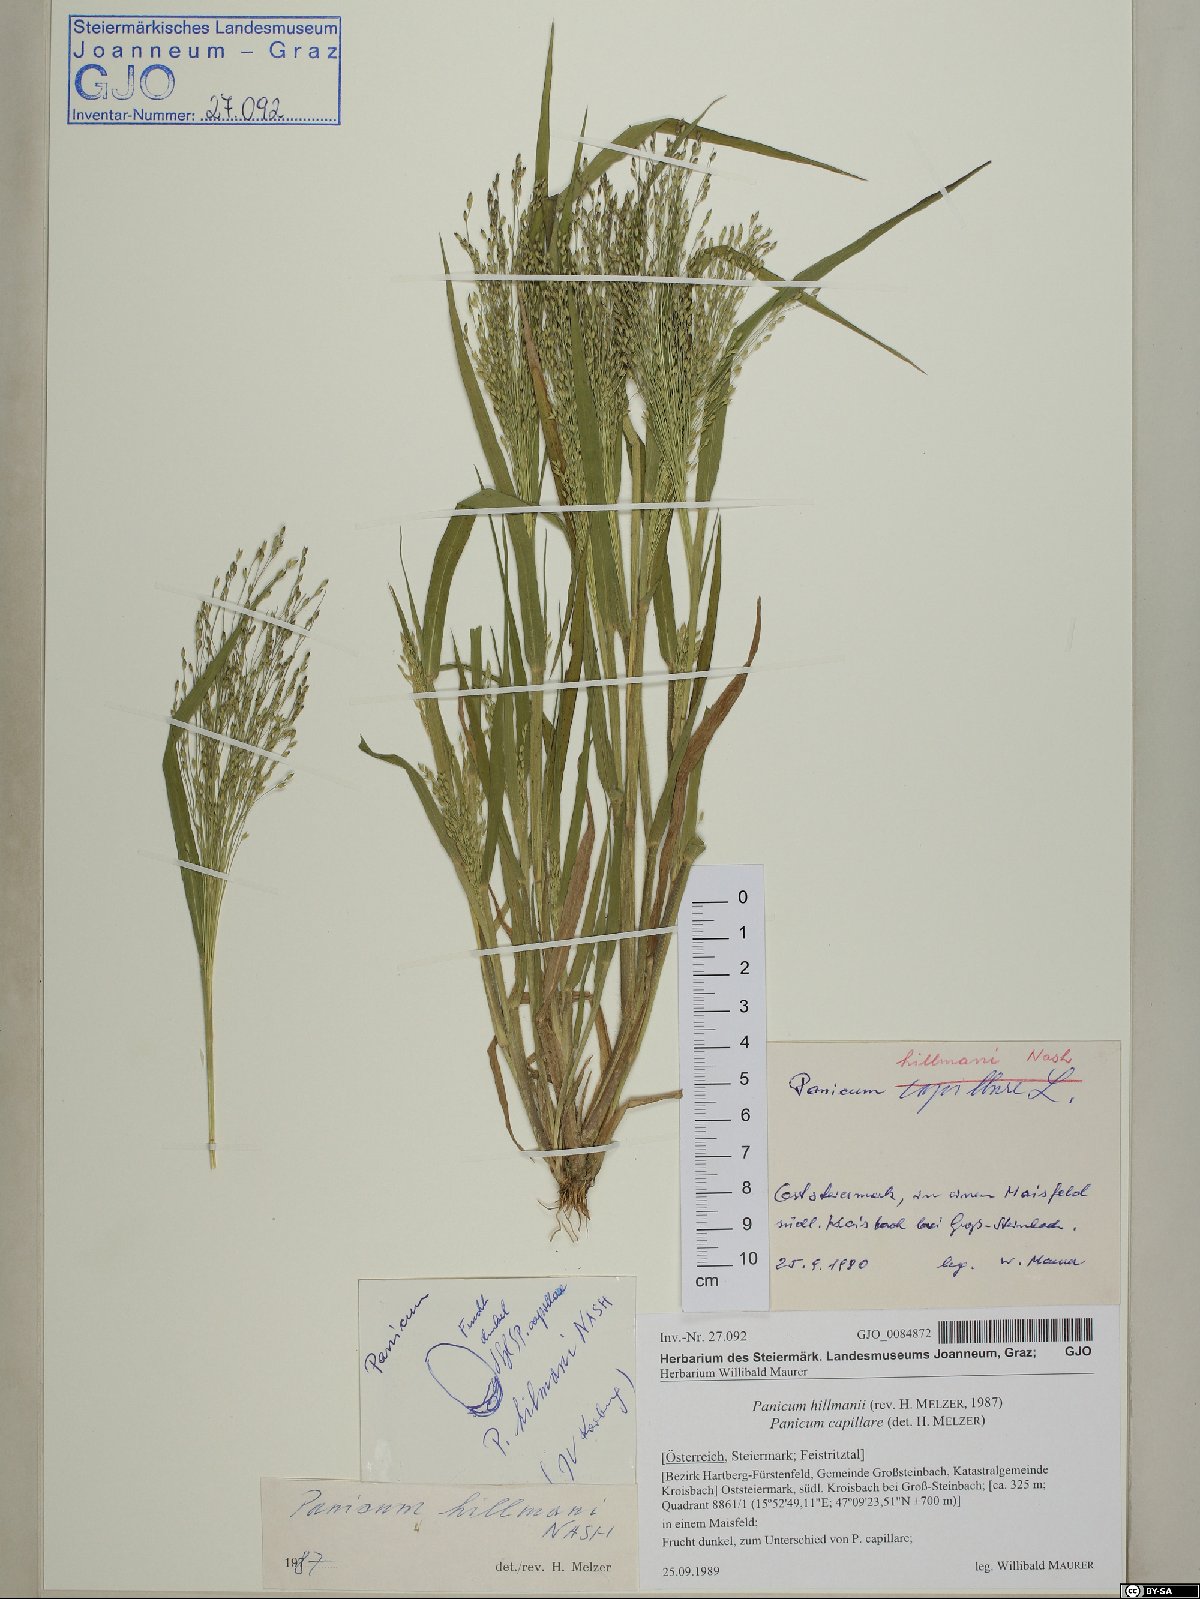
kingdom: Plantae
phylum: Tracheophyta
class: Liliopsida
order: Poales
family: Poaceae
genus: Panicum
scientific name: Panicum hillmanii
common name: Hillman's panicum
